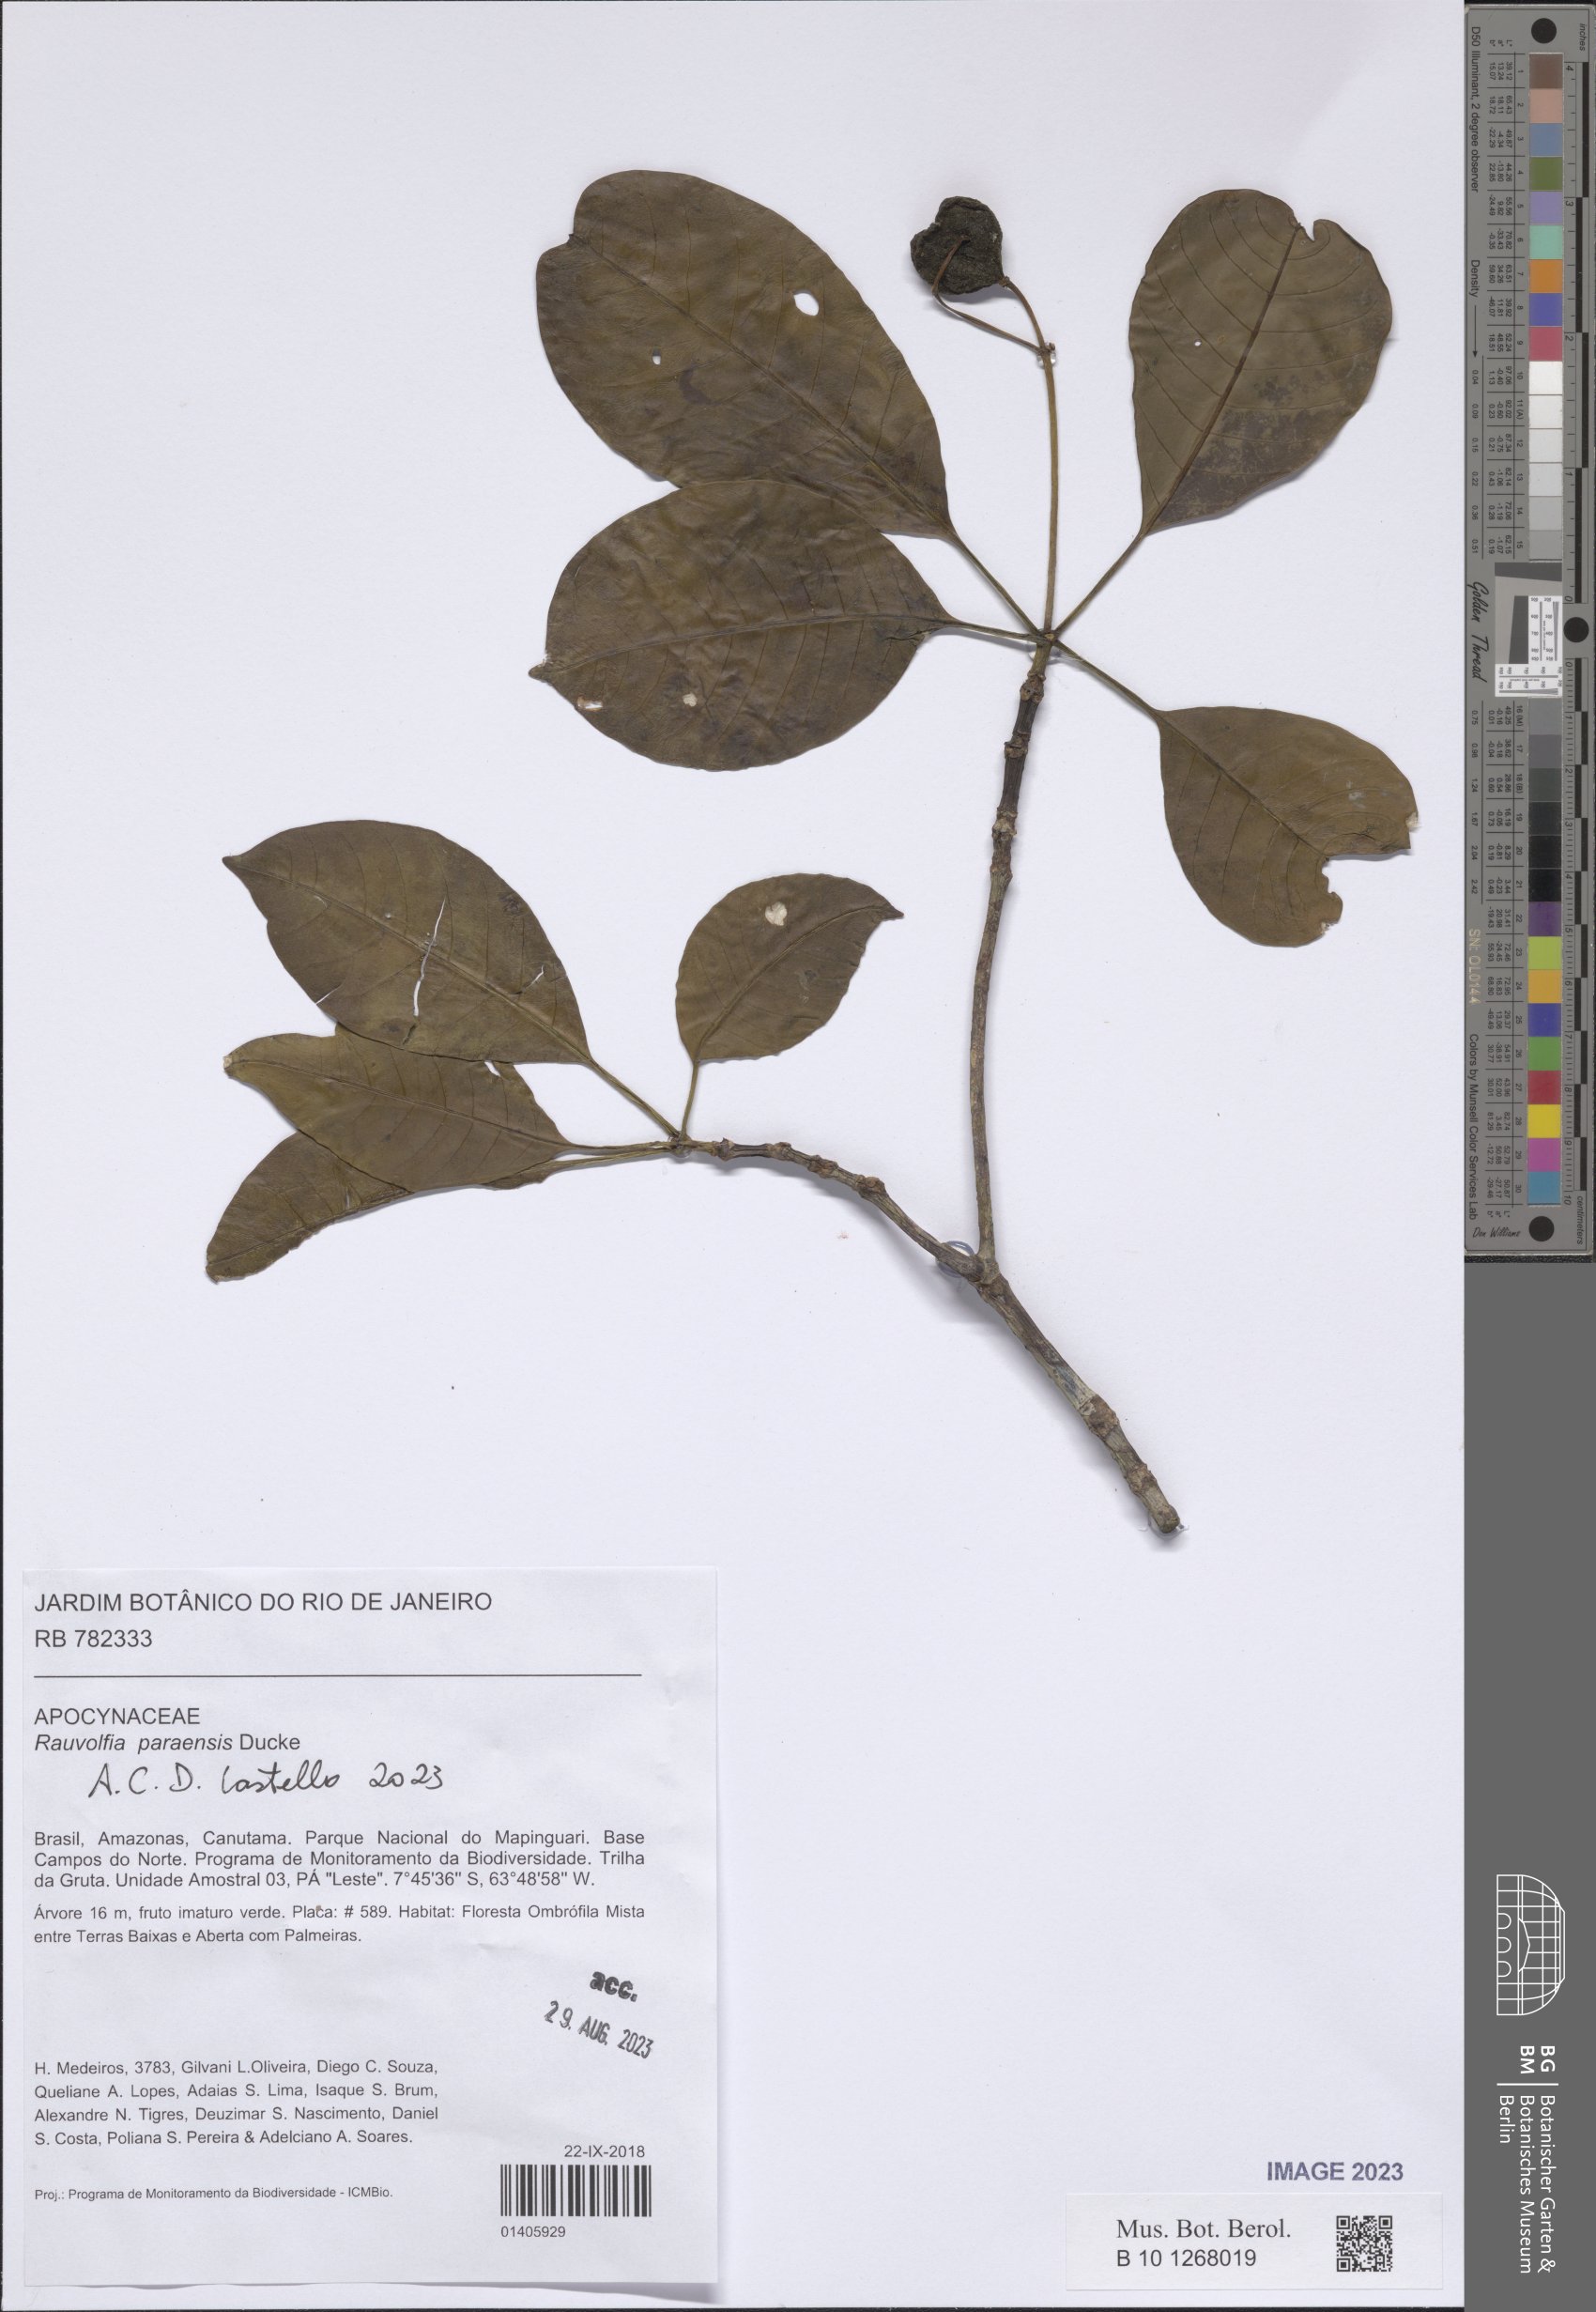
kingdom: Plantae
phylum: Tracheophyta
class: Magnoliopsida
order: Gentianales
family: Apocynaceae
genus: Rauvolfia
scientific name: Rauvolfia paraensis
